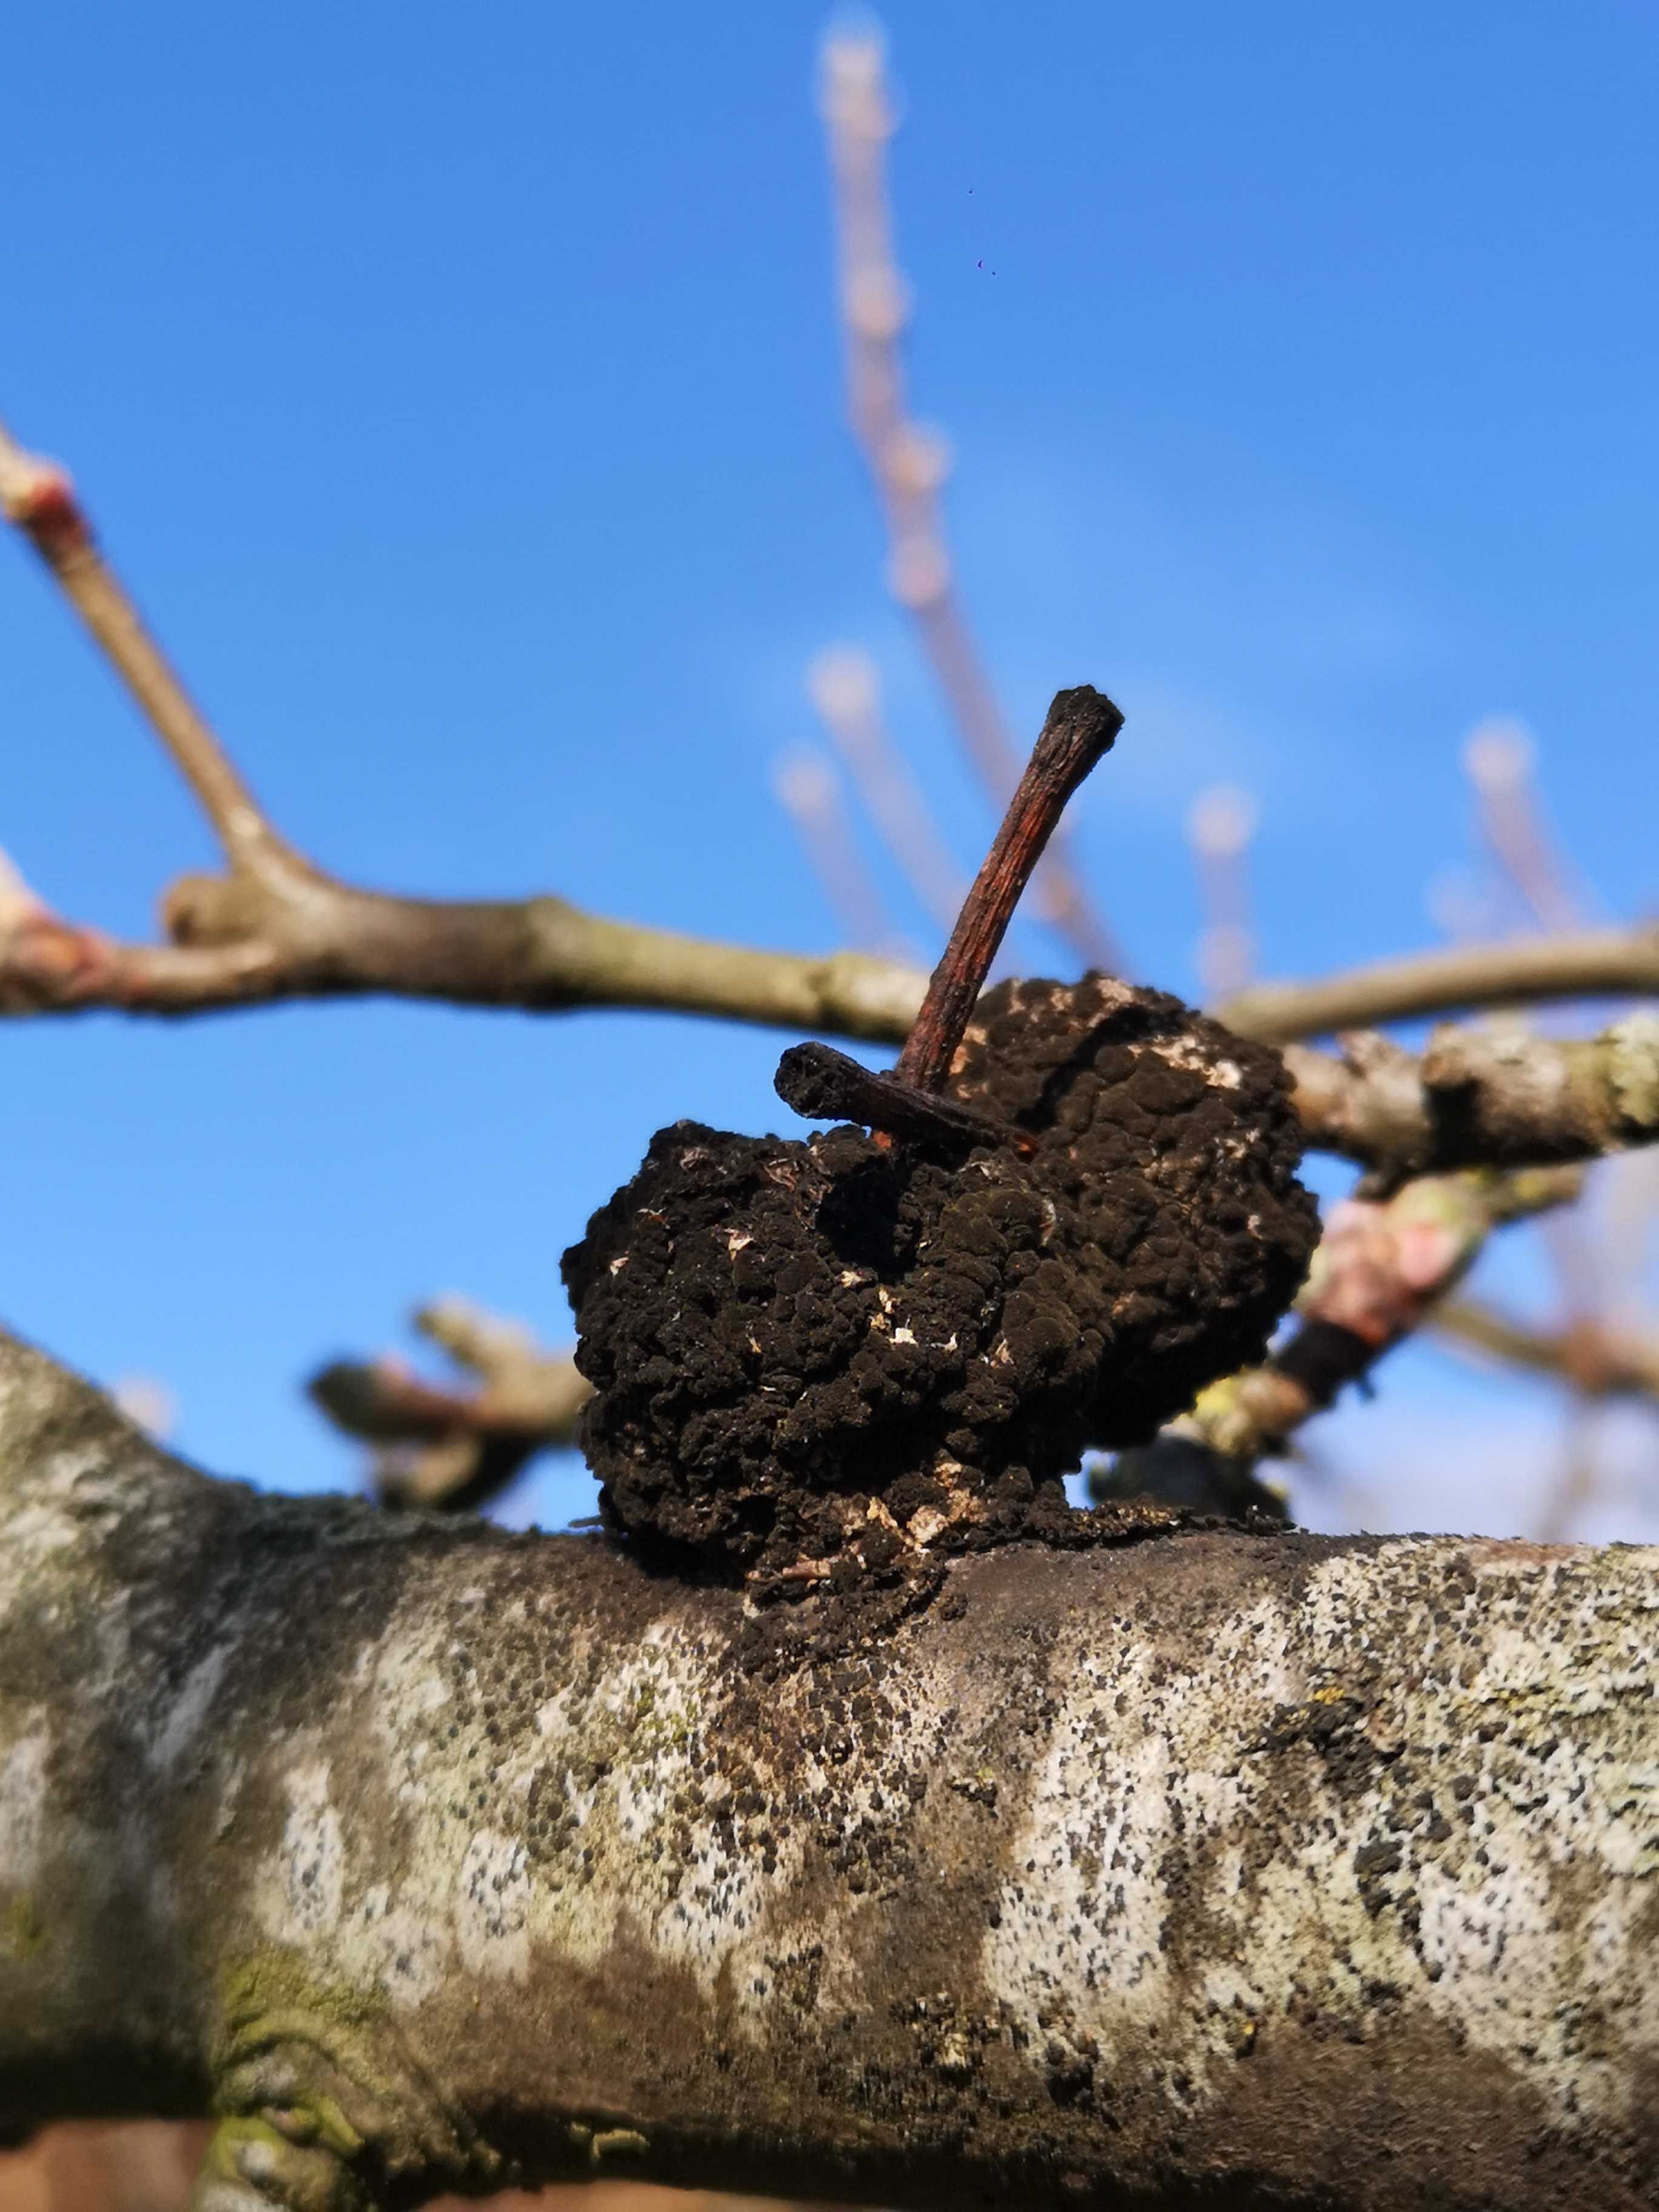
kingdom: Fungi
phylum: Ascomycota
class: Dothideomycetes
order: Capnodiales
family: Cladosporiaceae
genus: Cladosporium
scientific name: Cladosporium
